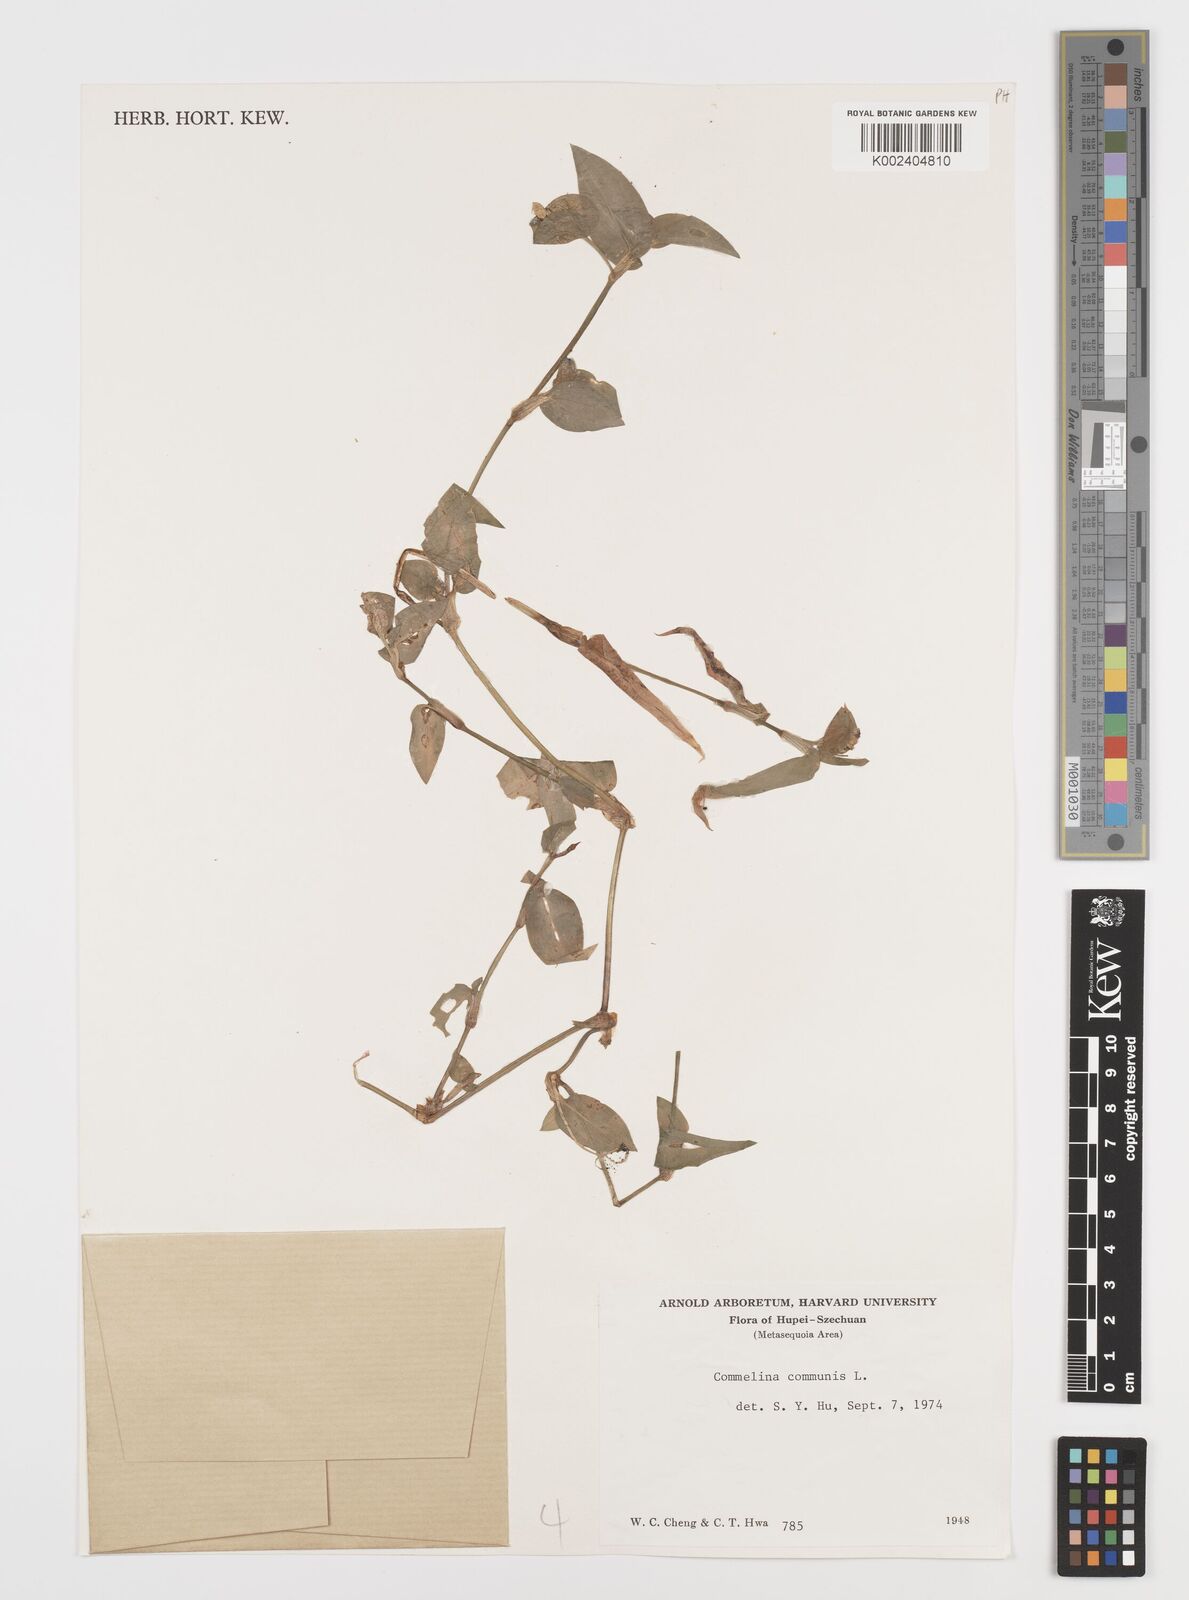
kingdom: Plantae
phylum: Tracheophyta
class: Liliopsida
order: Commelinales
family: Commelinaceae
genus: Commelina
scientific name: Commelina communis
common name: Asiatic dayflower
